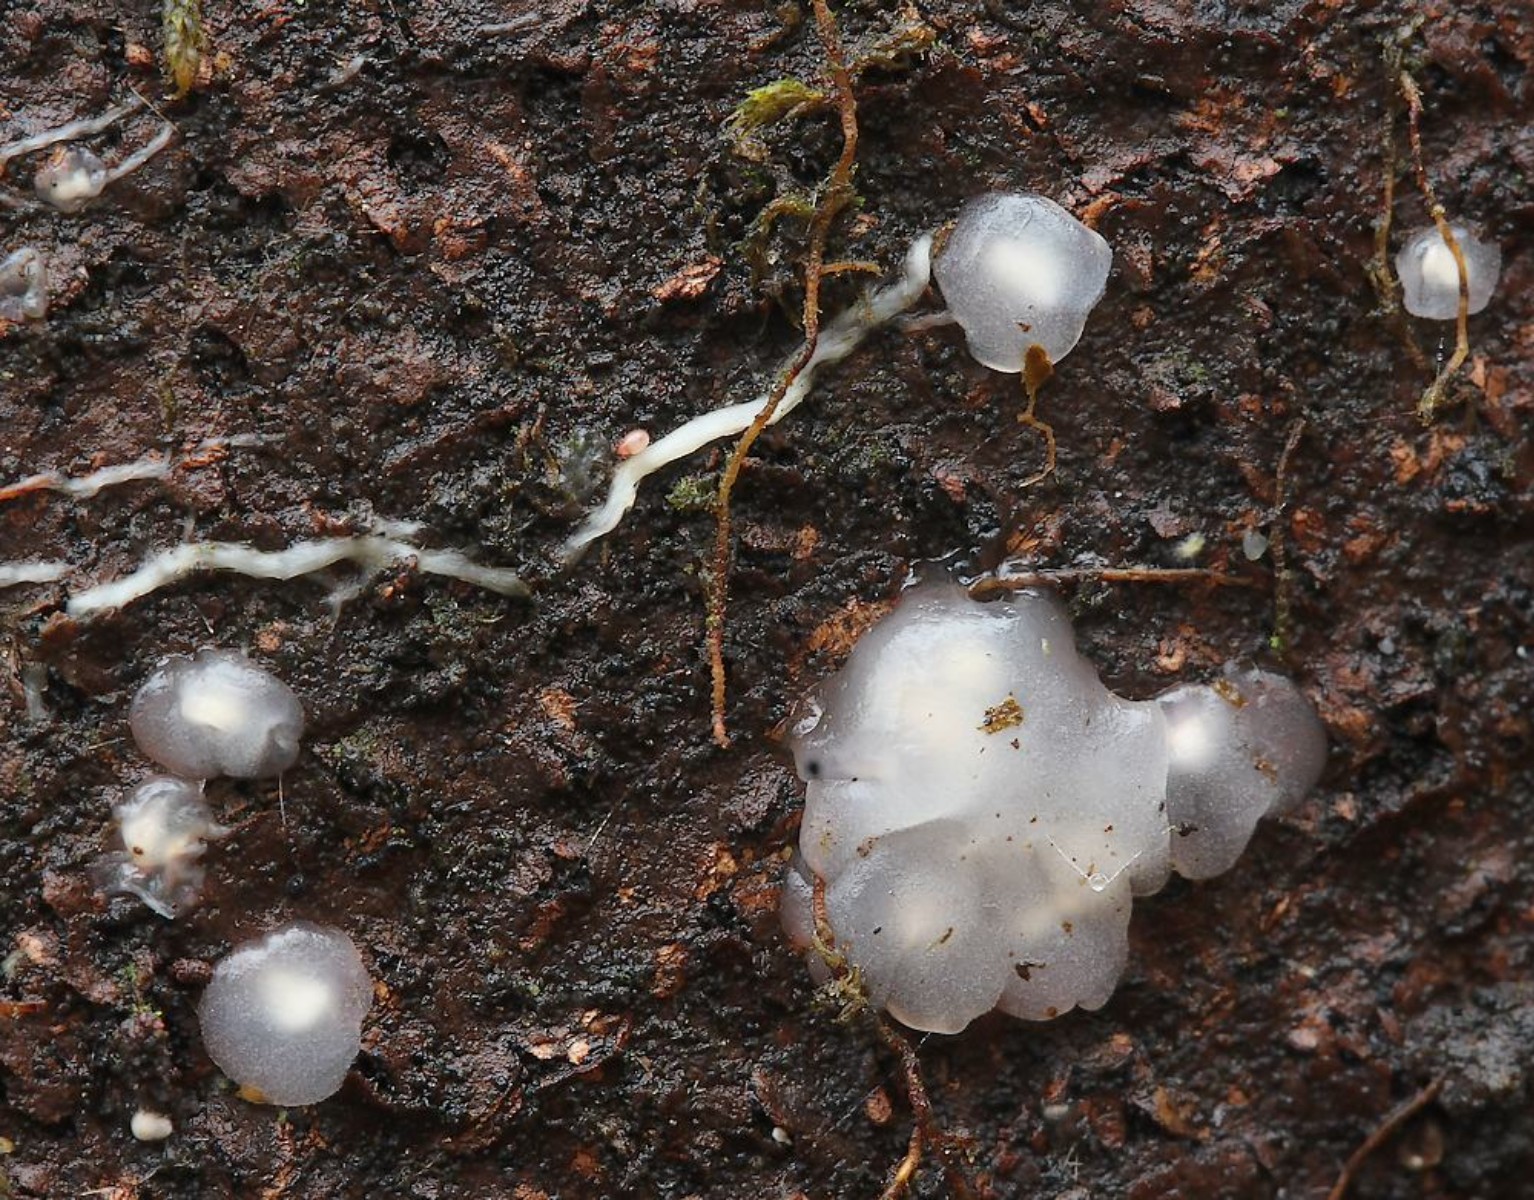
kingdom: Fungi
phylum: Basidiomycota
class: Agaricomycetes
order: Auriculariales
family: Hyaloriaceae
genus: Myxarium
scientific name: Myxarium nucleatum
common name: klar bævretop
